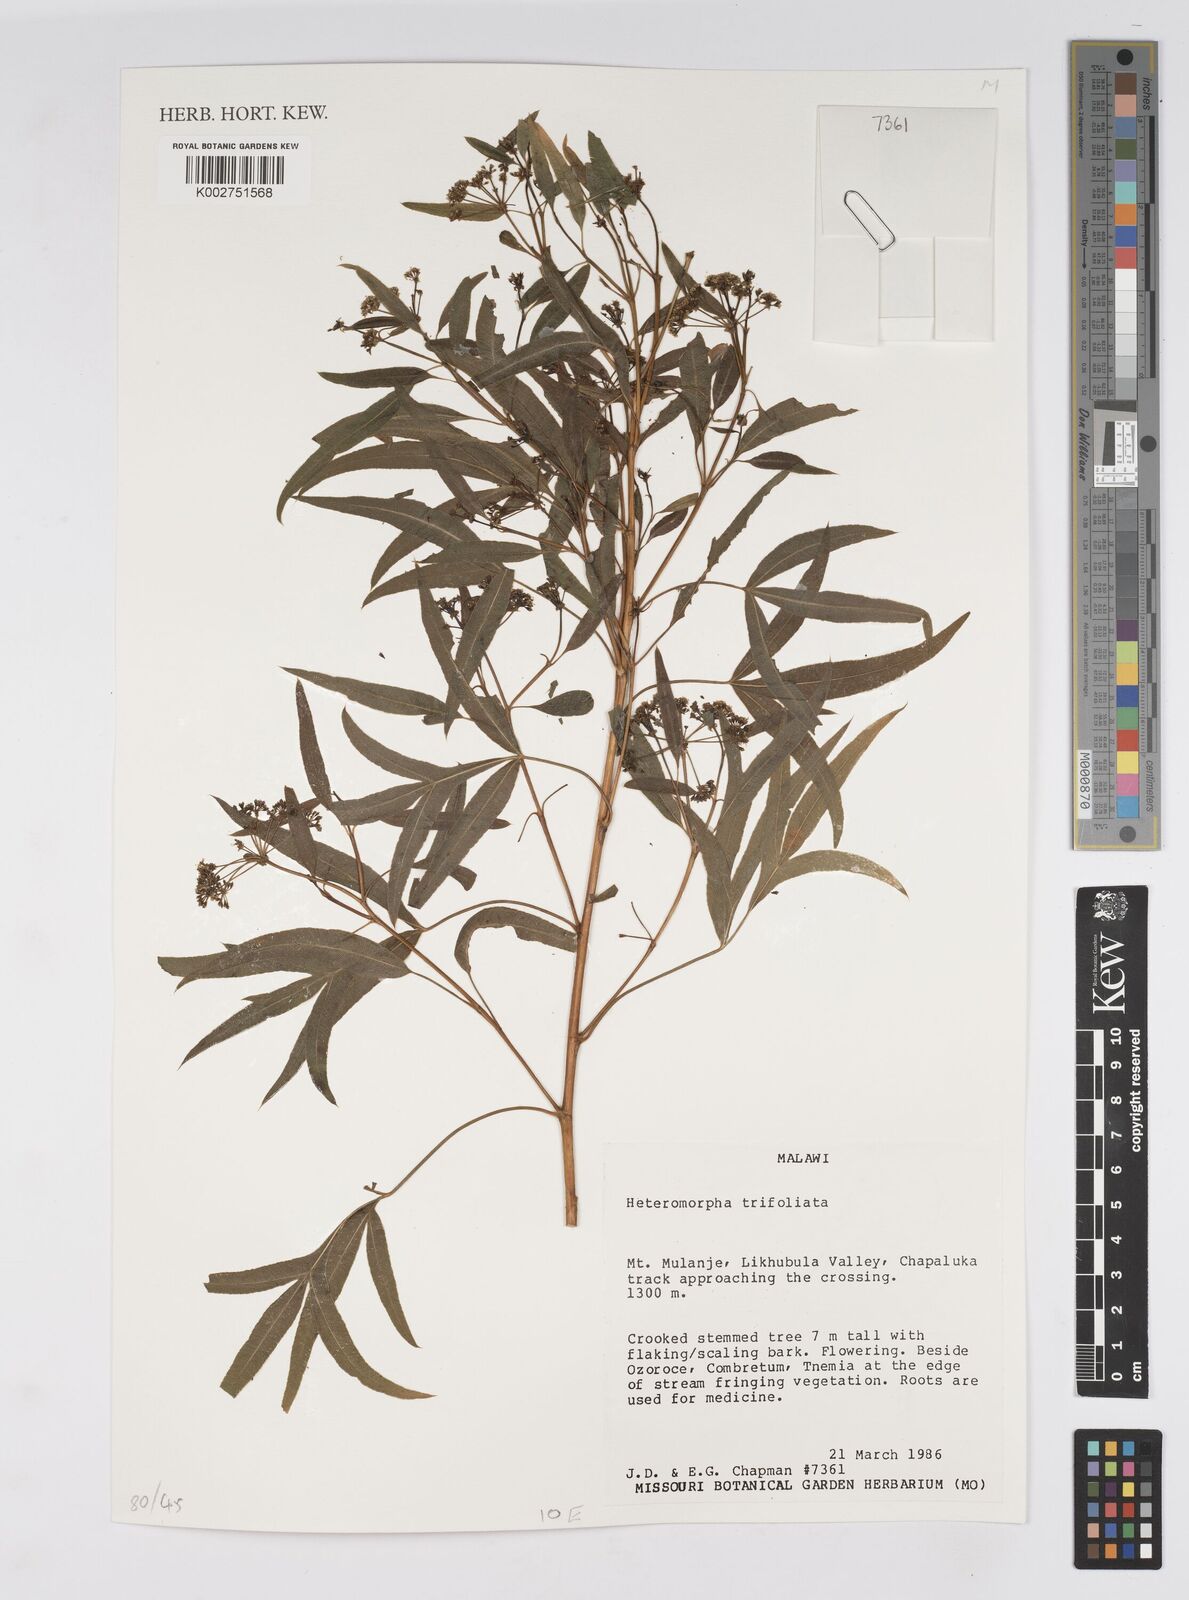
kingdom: Plantae
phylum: Tracheophyta
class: Magnoliopsida
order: Apiales
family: Apiaceae
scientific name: Apiaceae
